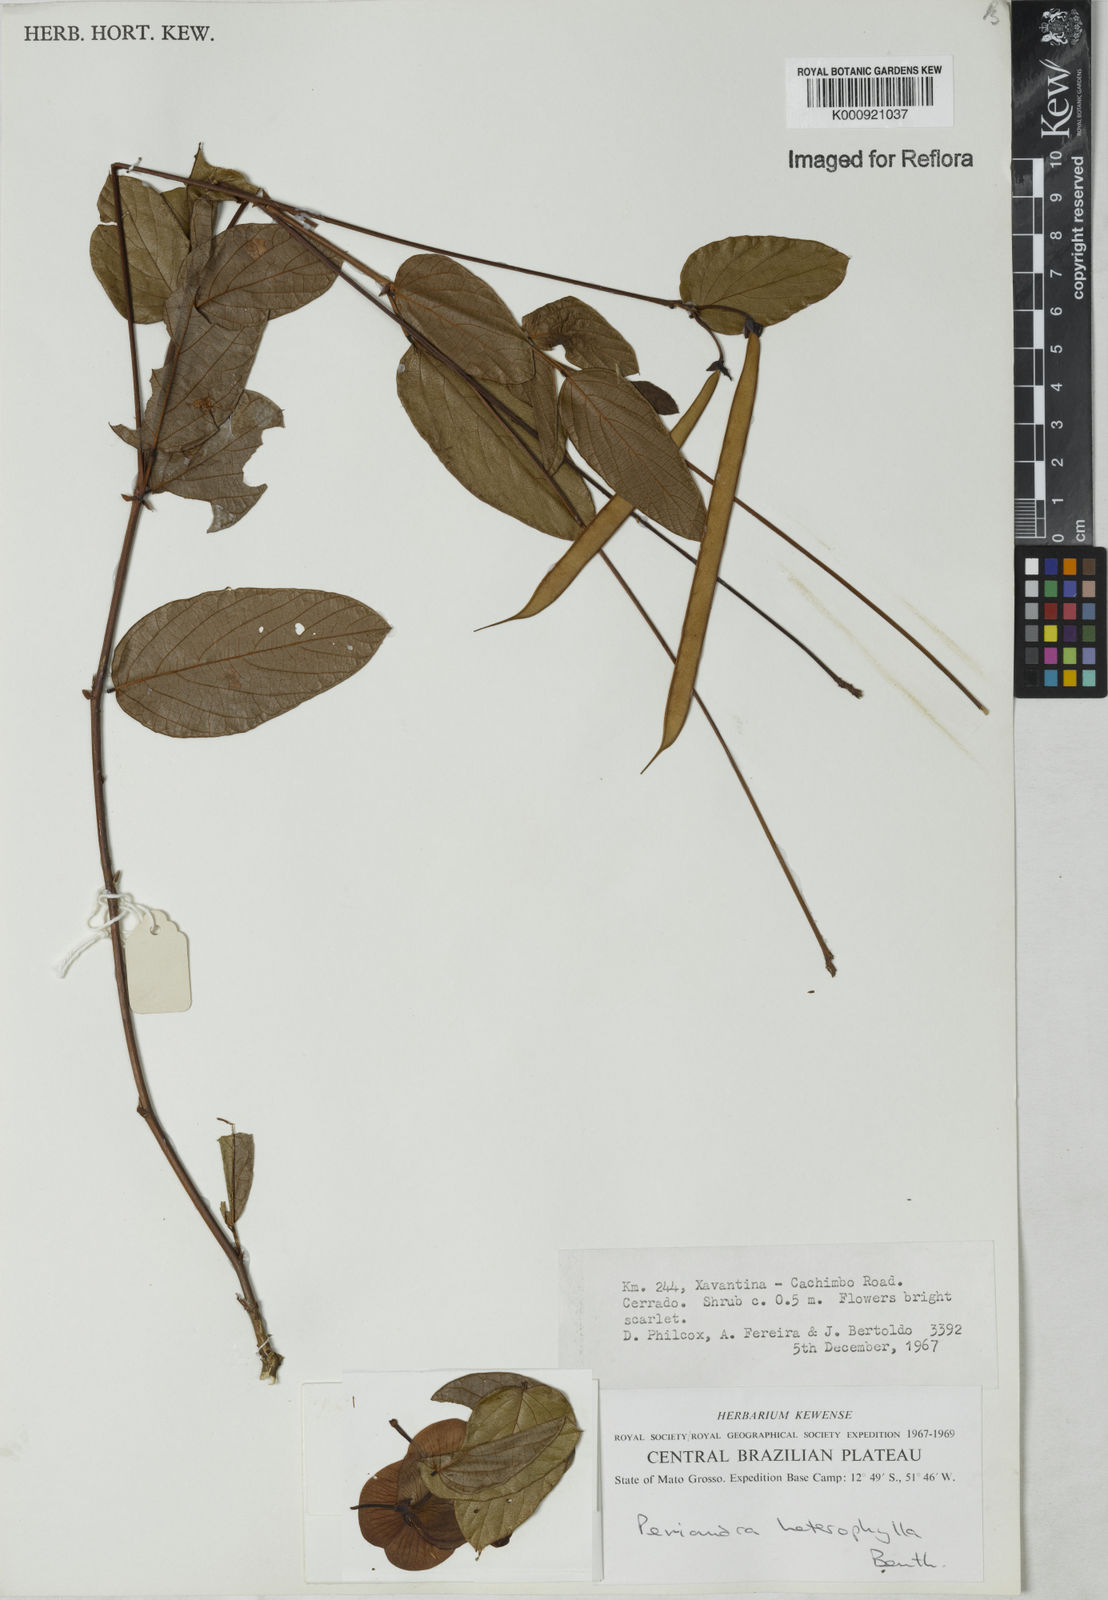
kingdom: Plantae
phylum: Tracheophyta
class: Magnoliopsida
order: Fabales
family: Fabaceae
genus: Periandra
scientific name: Periandra heterophylla
